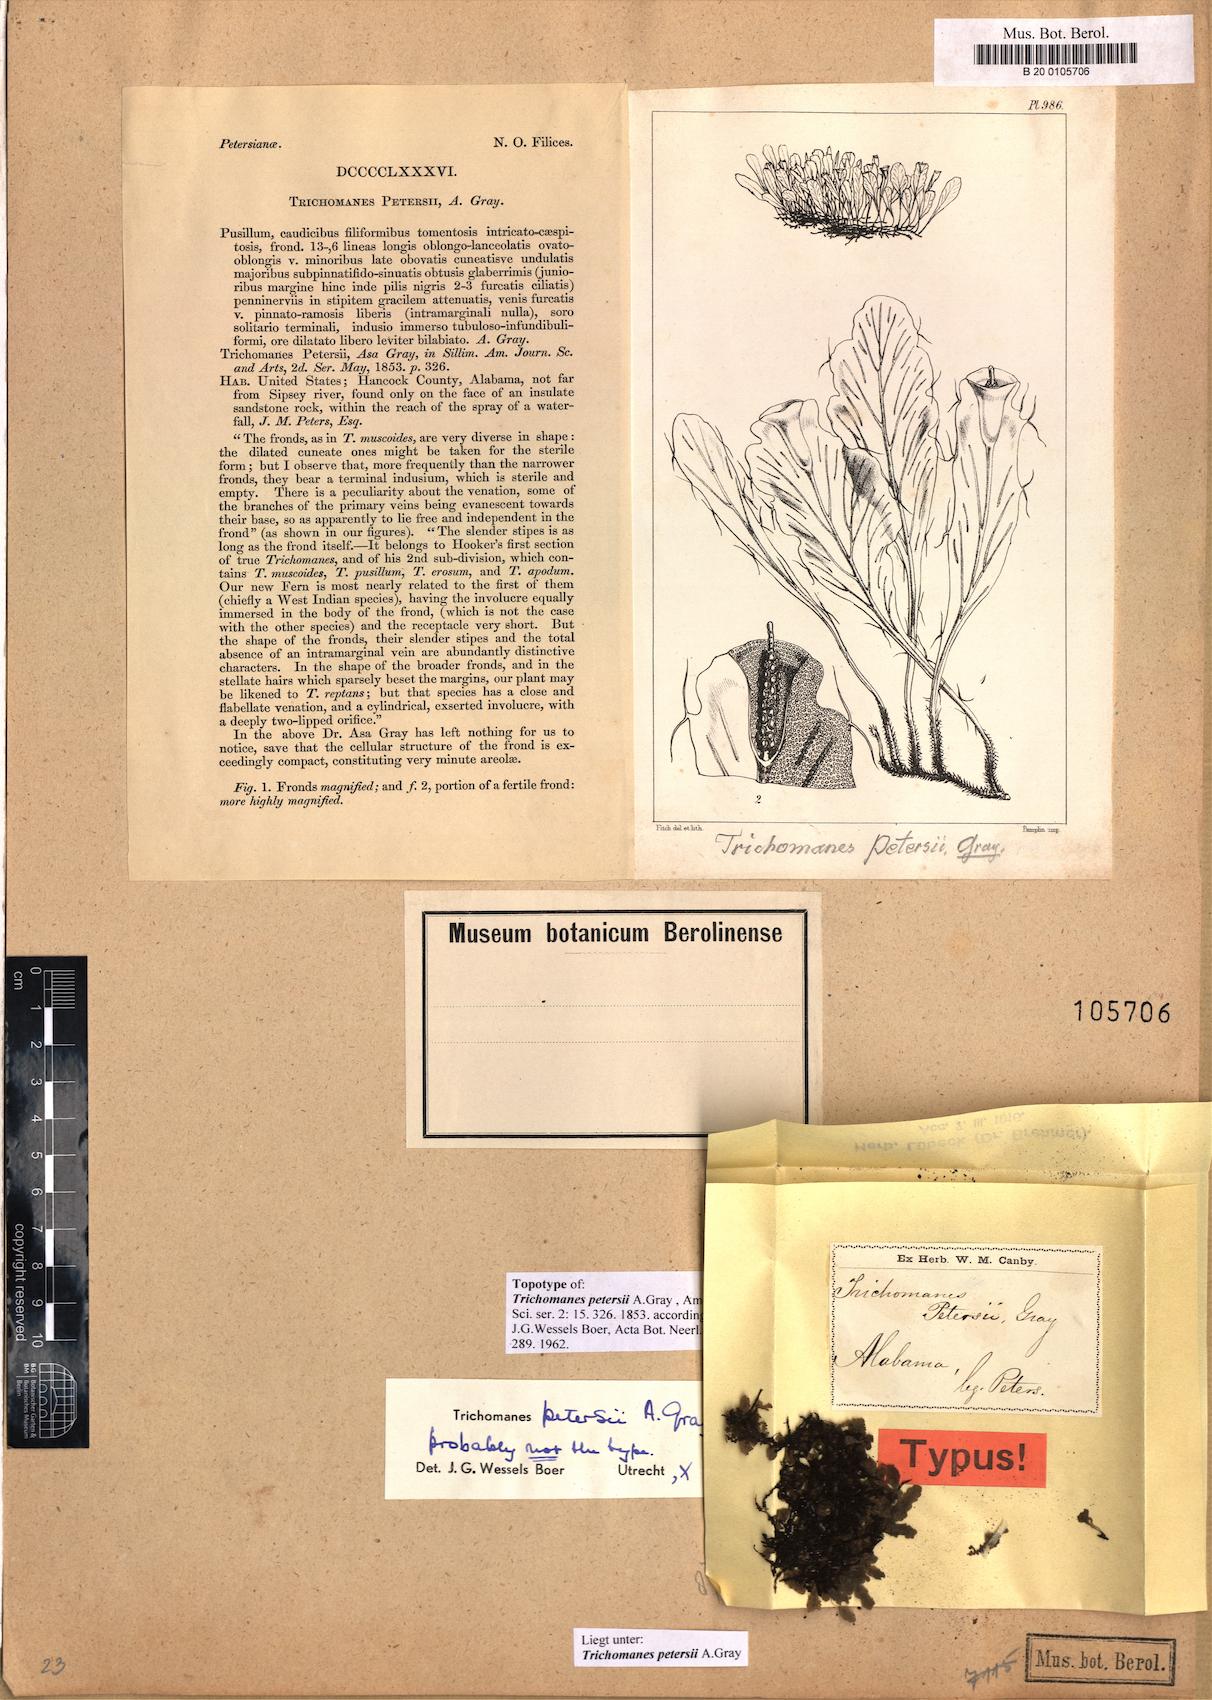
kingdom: Plantae
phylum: Tracheophyta
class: Polypodiopsida
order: Hymenophyllales
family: Hymenophyllaceae
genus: Didymoglossum
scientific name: Didymoglossum petersii
